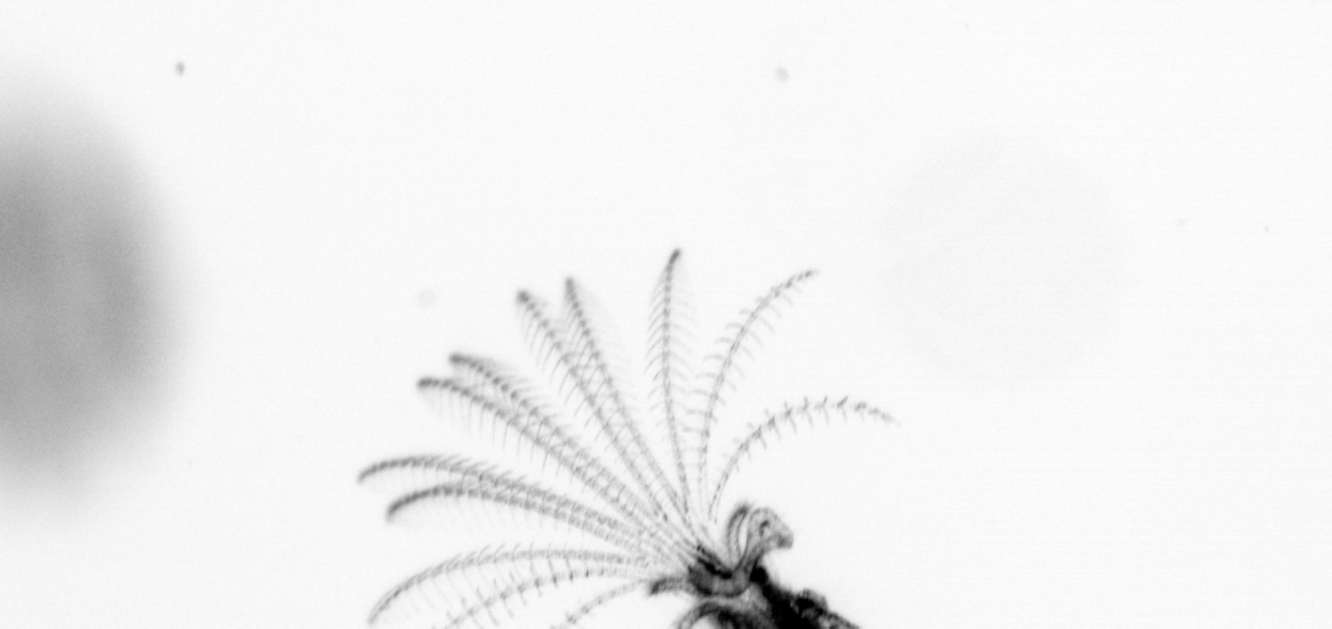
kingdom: Animalia
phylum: Arthropoda
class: Maxillopoda
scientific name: Maxillopoda
